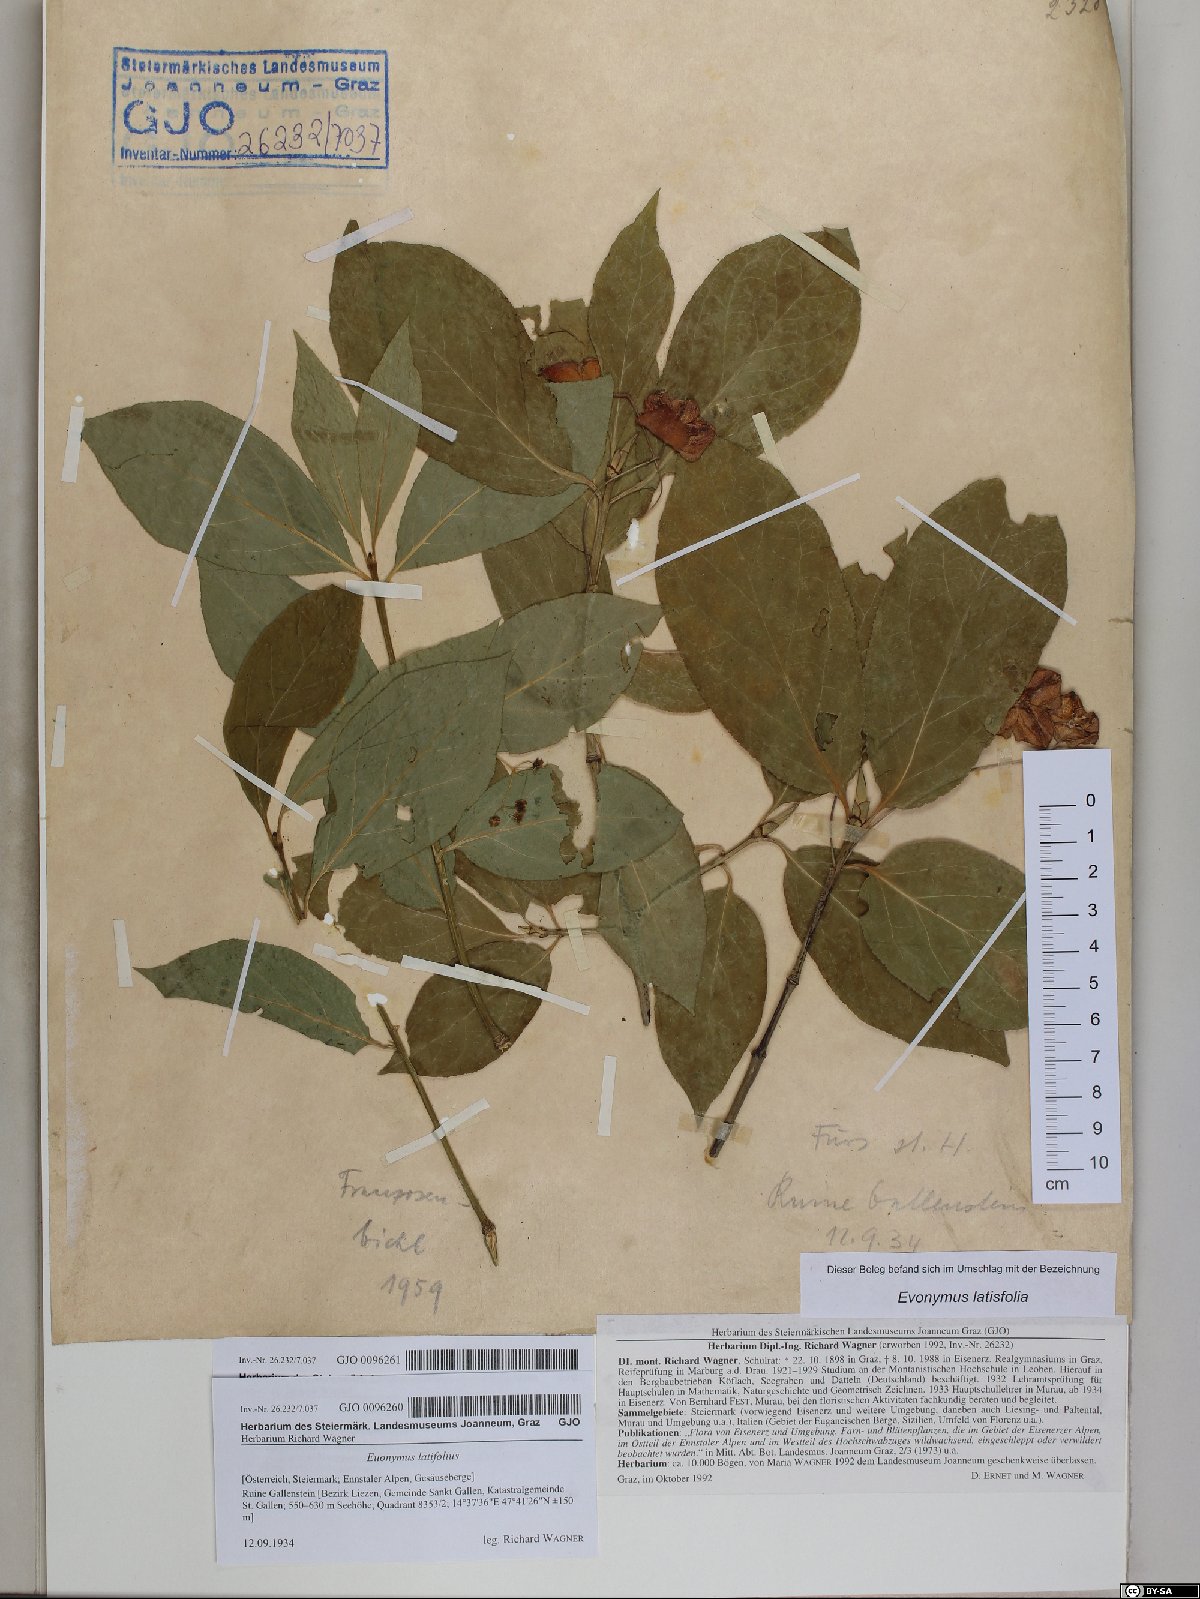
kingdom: Plantae
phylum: Tracheophyta
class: Magnoliopsida
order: Celastrales
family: Celastraceae
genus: Euonymus
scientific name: Euonymus latifolius
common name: Large-leaved spindle
